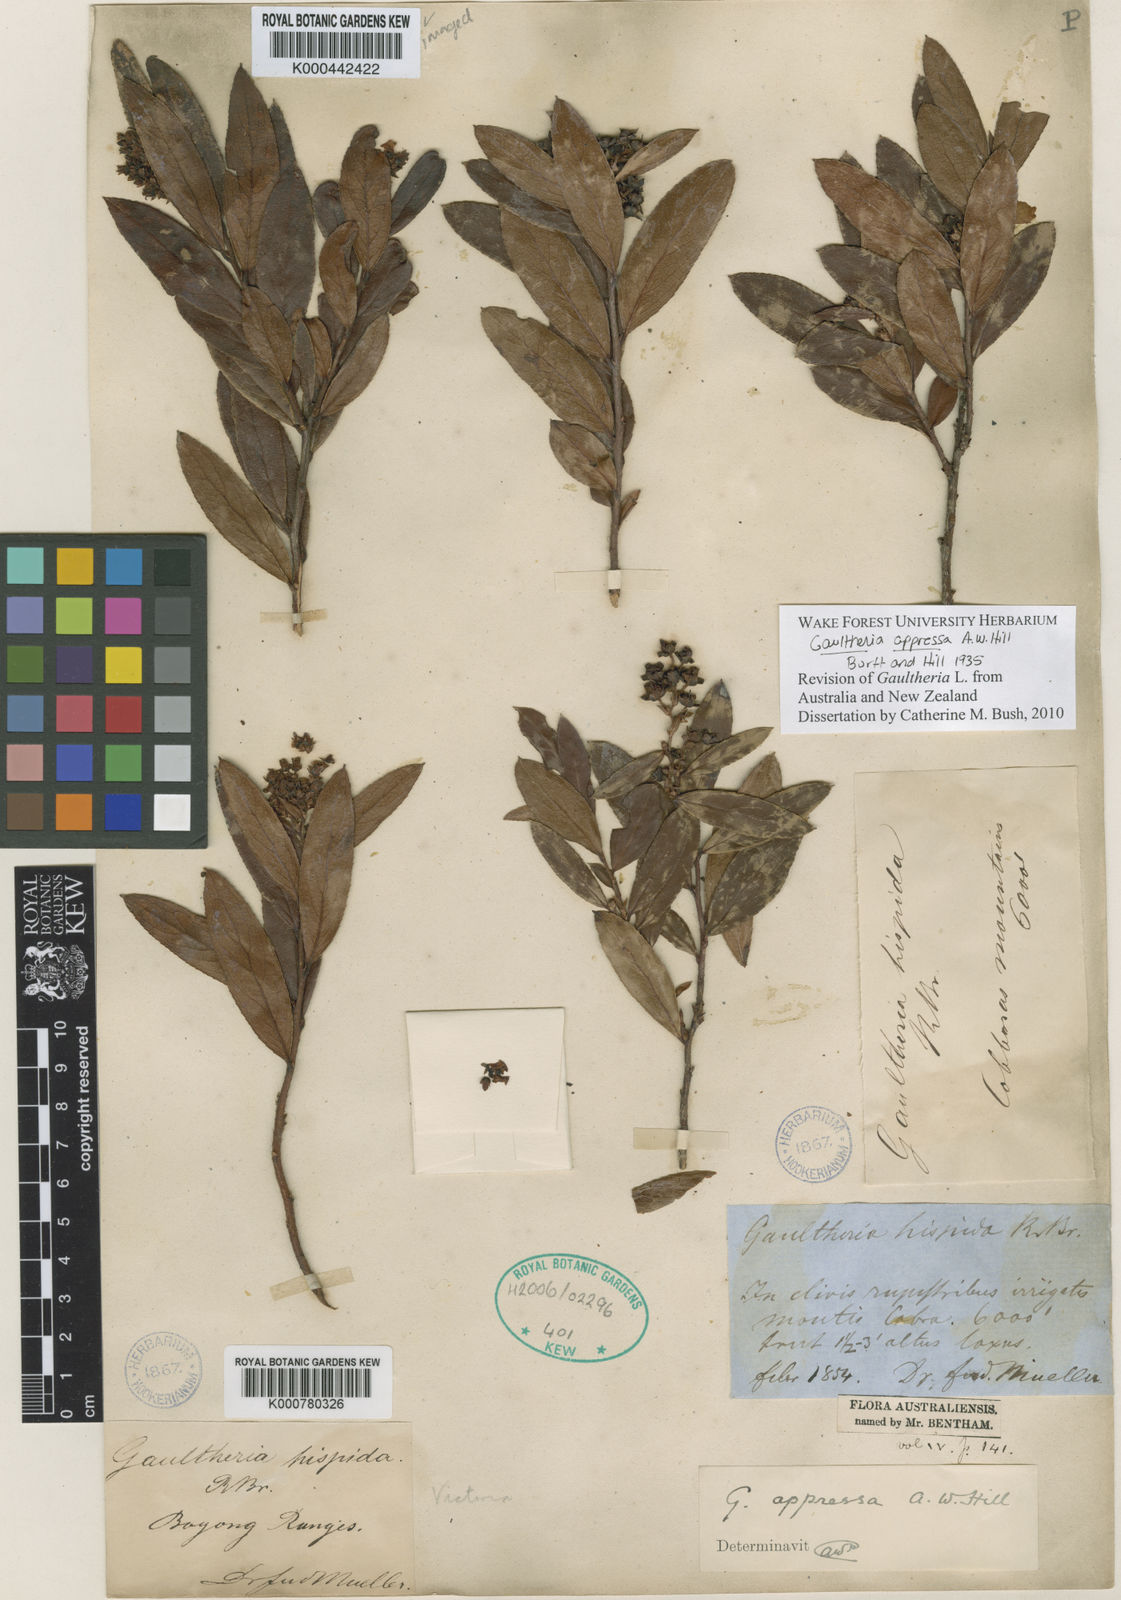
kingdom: Plantae
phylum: Tracheophyta
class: Magnoliopsida
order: Ericales
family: Ericaceae
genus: Gaultheria
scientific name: Gaultheria appressa
